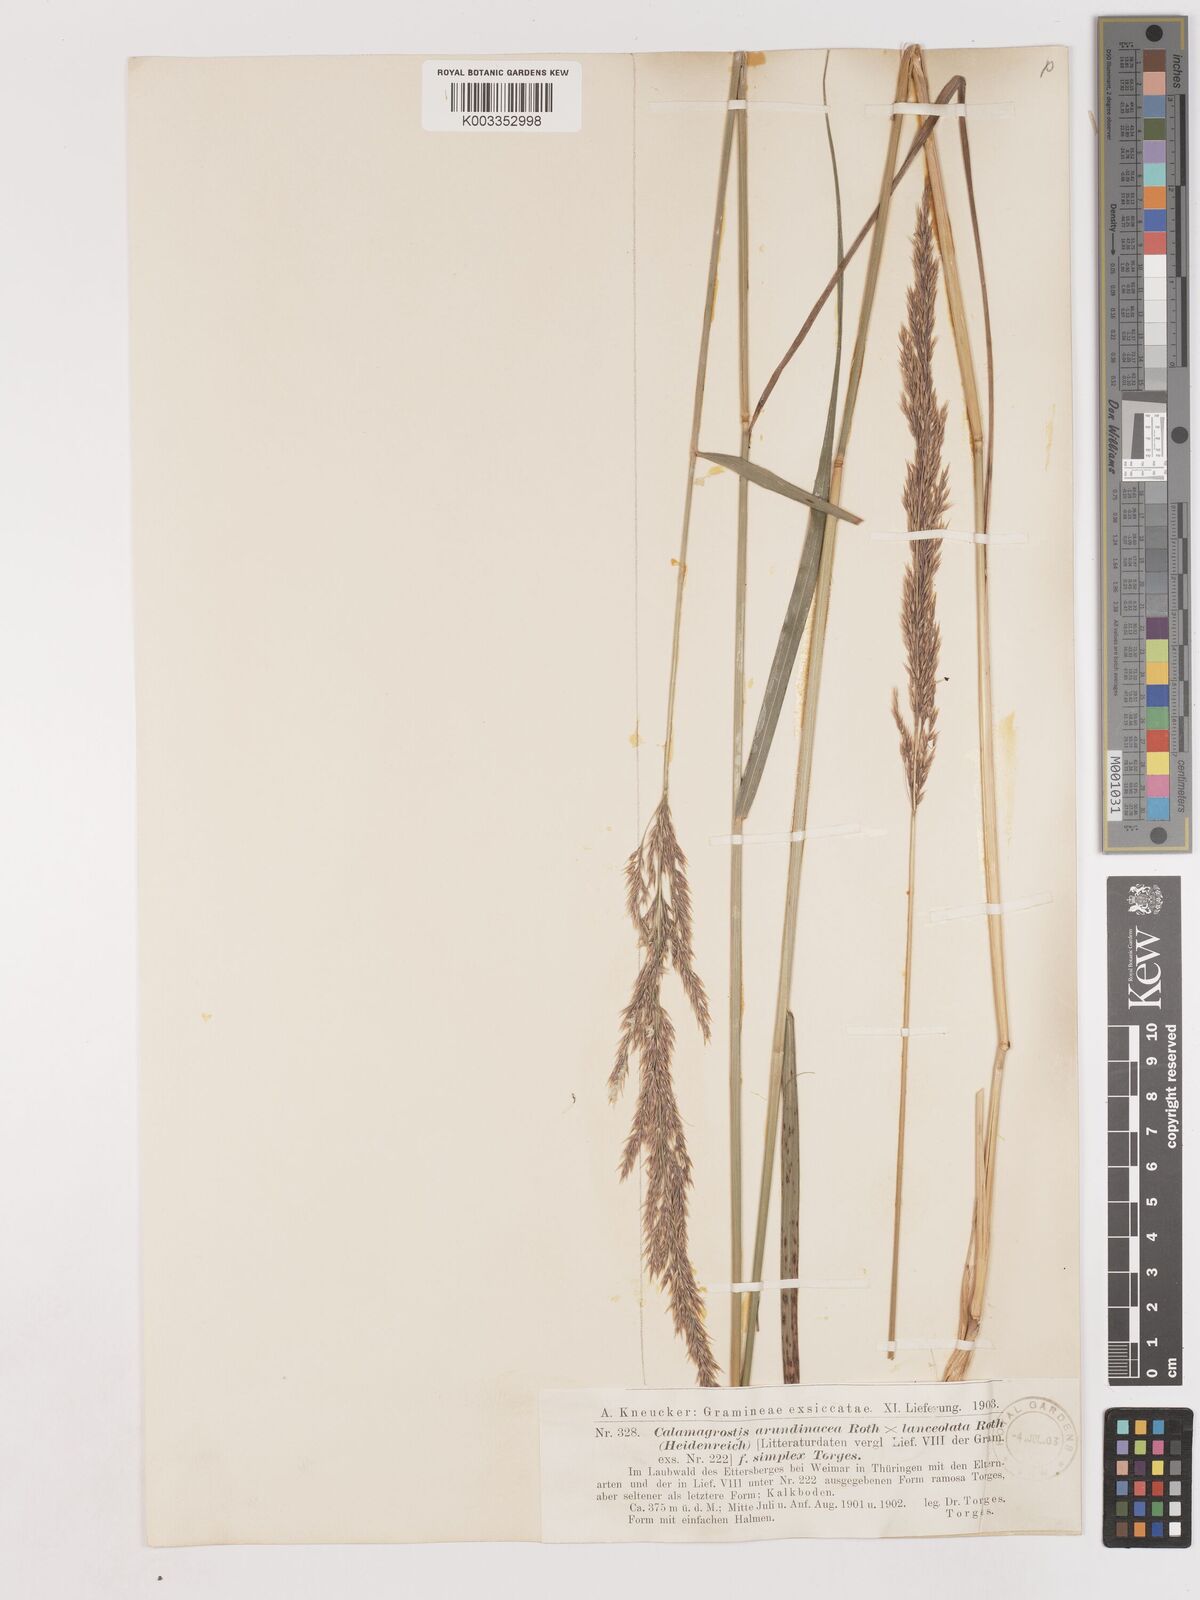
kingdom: Plantae
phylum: Tracheophyta
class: Liliopsida
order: Poales
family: Poaceae
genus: Calamagrostis
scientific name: Calamagrostis canescens
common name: Purple small-reed
